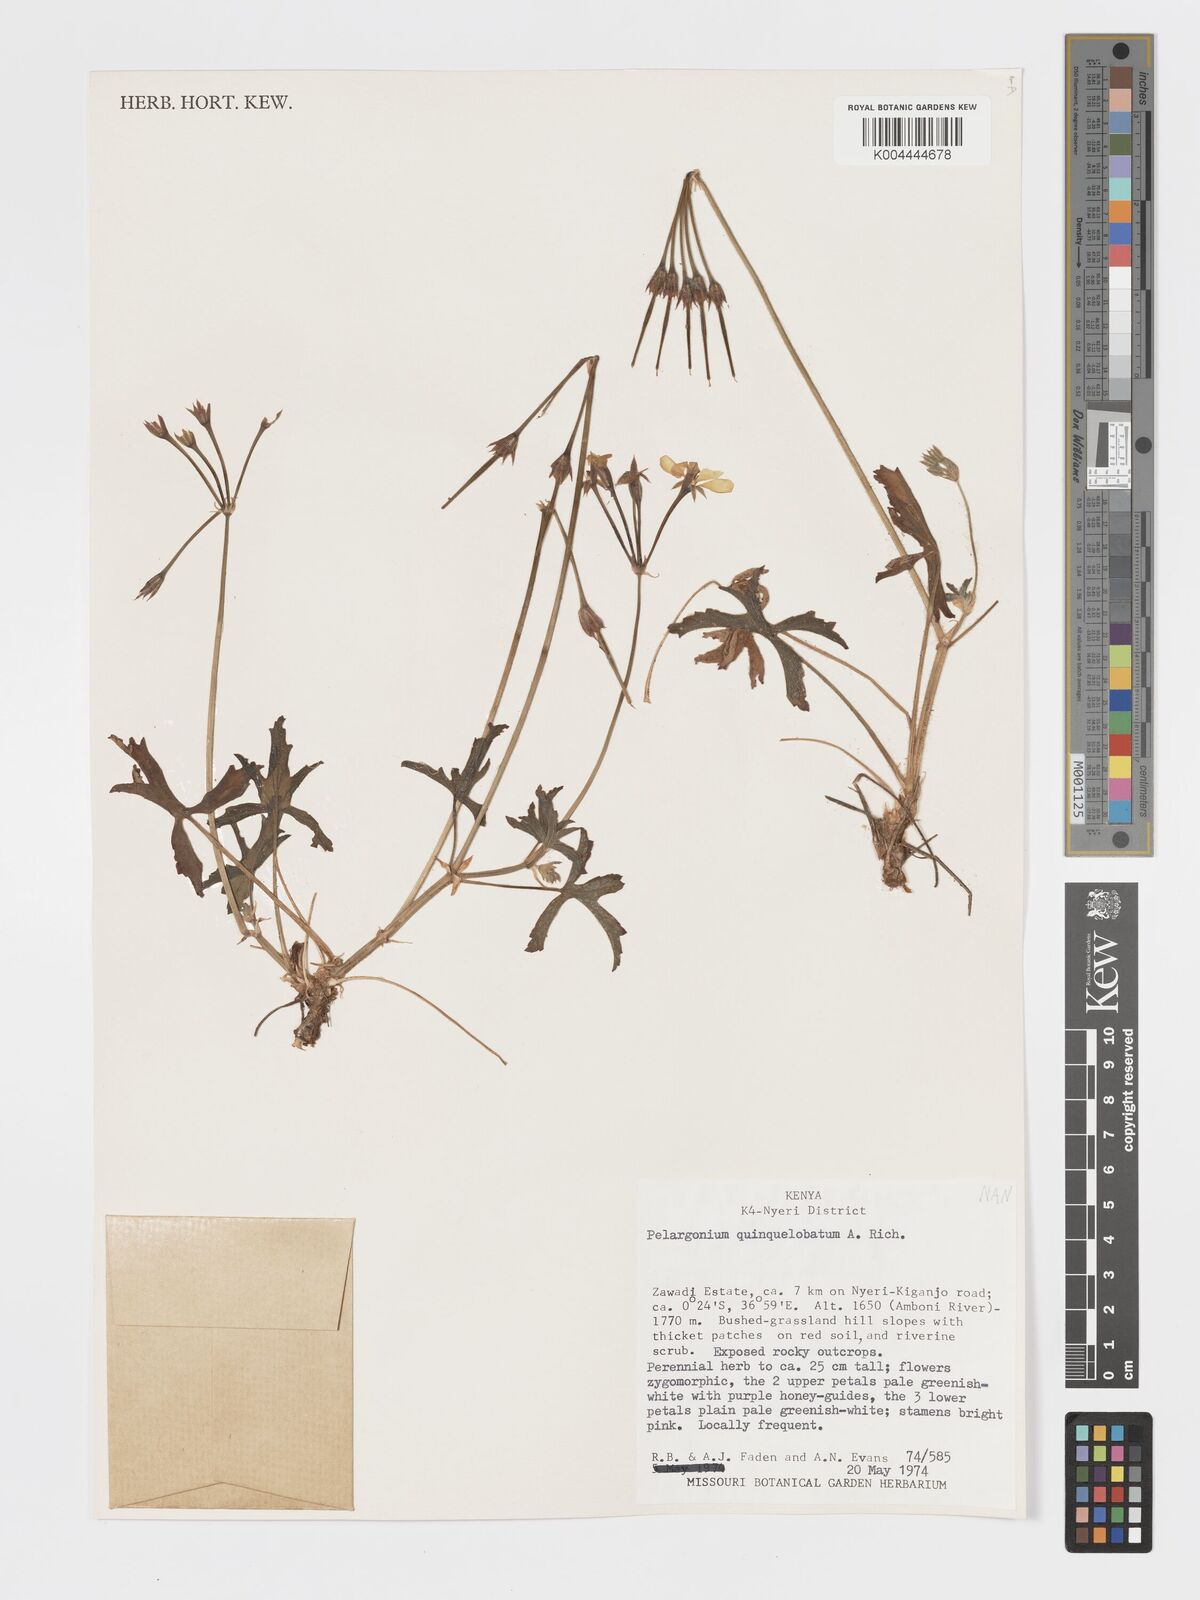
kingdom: Plantae
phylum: Tracheophyta
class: Magnoliopsida
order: Geraniales
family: Geraniaceae
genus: Pelargonium
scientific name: Pelargonium quinquelobatum
